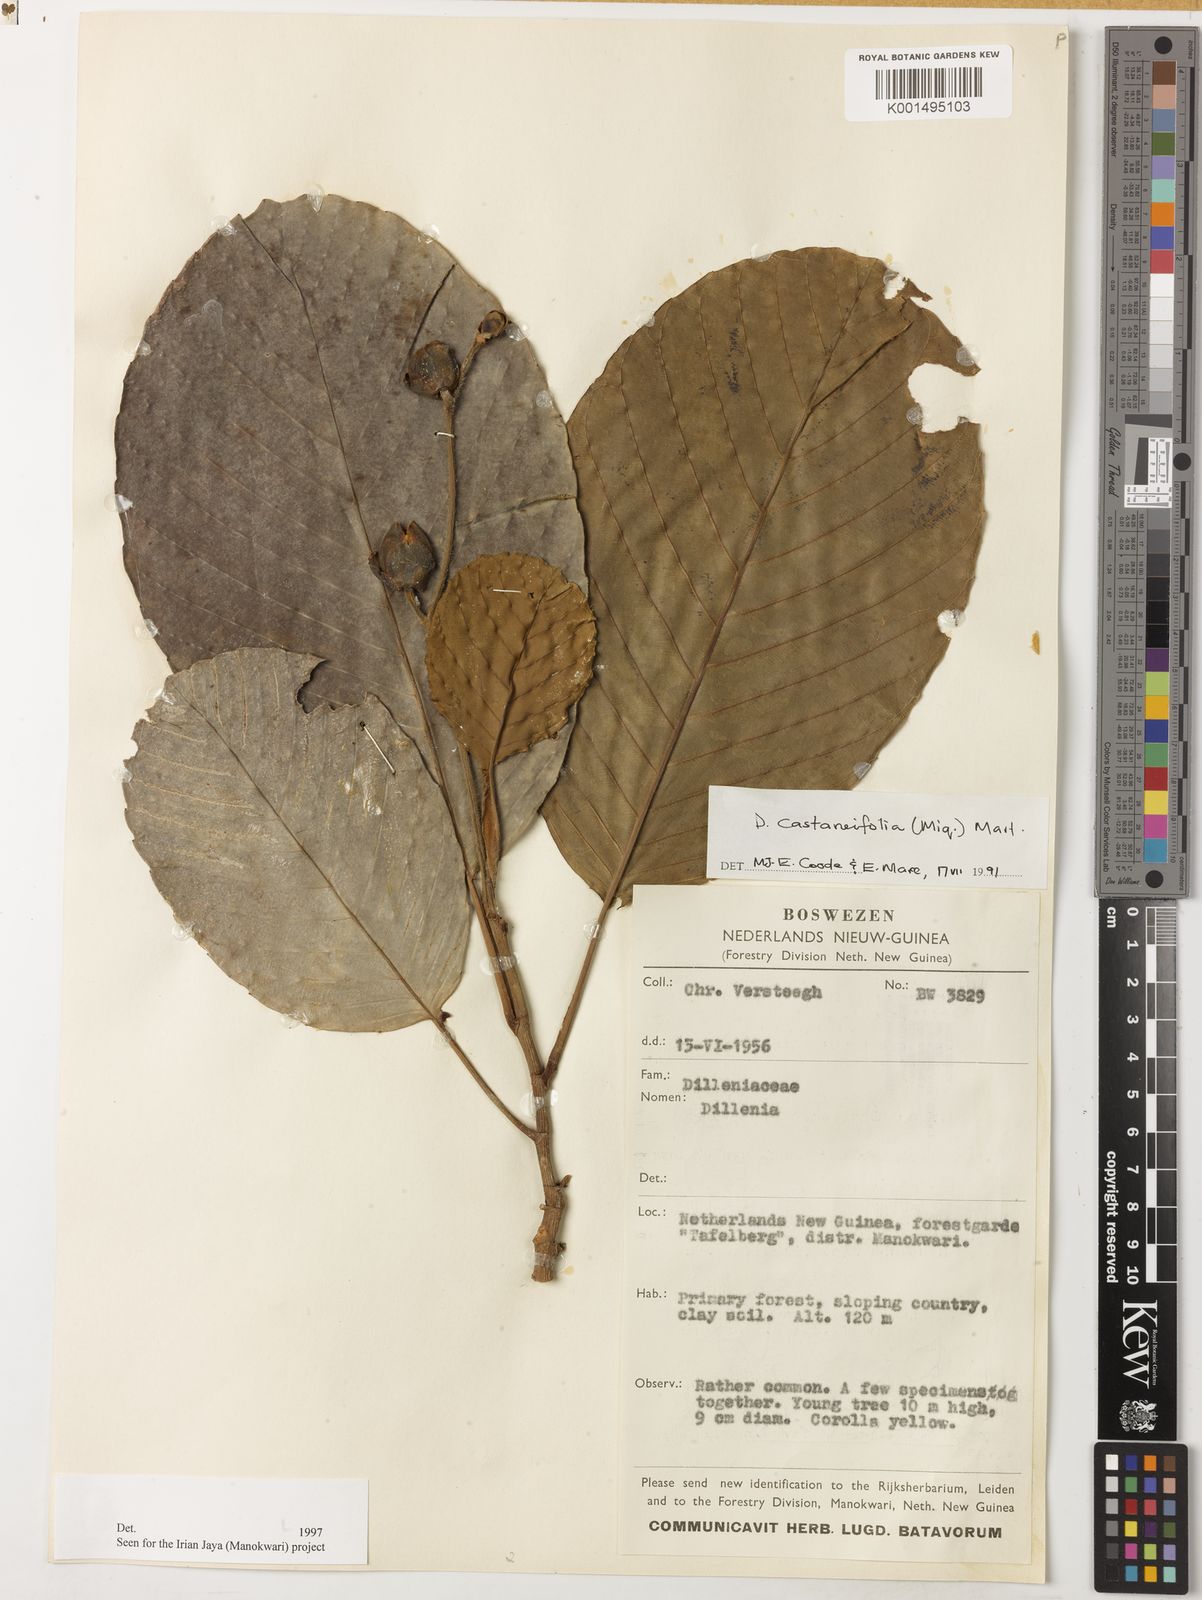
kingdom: Plantae
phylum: Tracheophyta
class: Magnoliopsida
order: Dilleniales
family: Dilleniaceae
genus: Dillenia
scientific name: Dillenia castaneifolia
